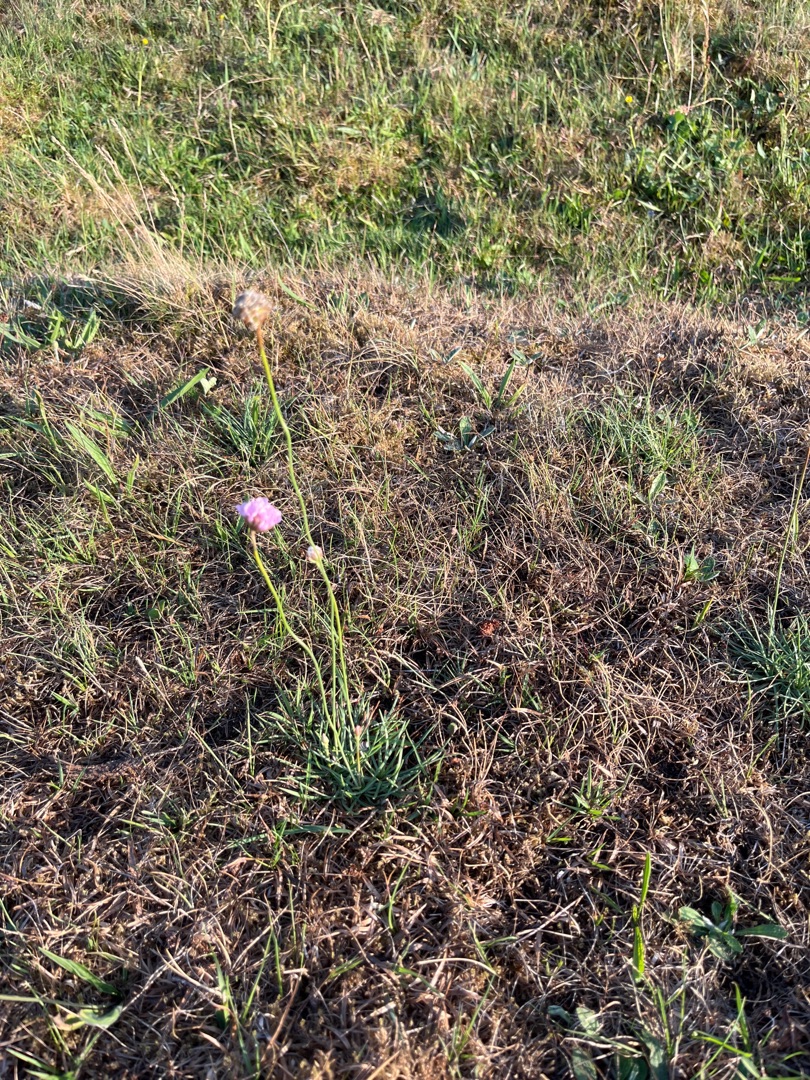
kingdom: Plantae
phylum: Tracheophyta
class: Magnoliopsida
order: Caryophyllales
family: Plumbaginaceae
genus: Armeria
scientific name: Armeria maritima
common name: Engelskgræs
